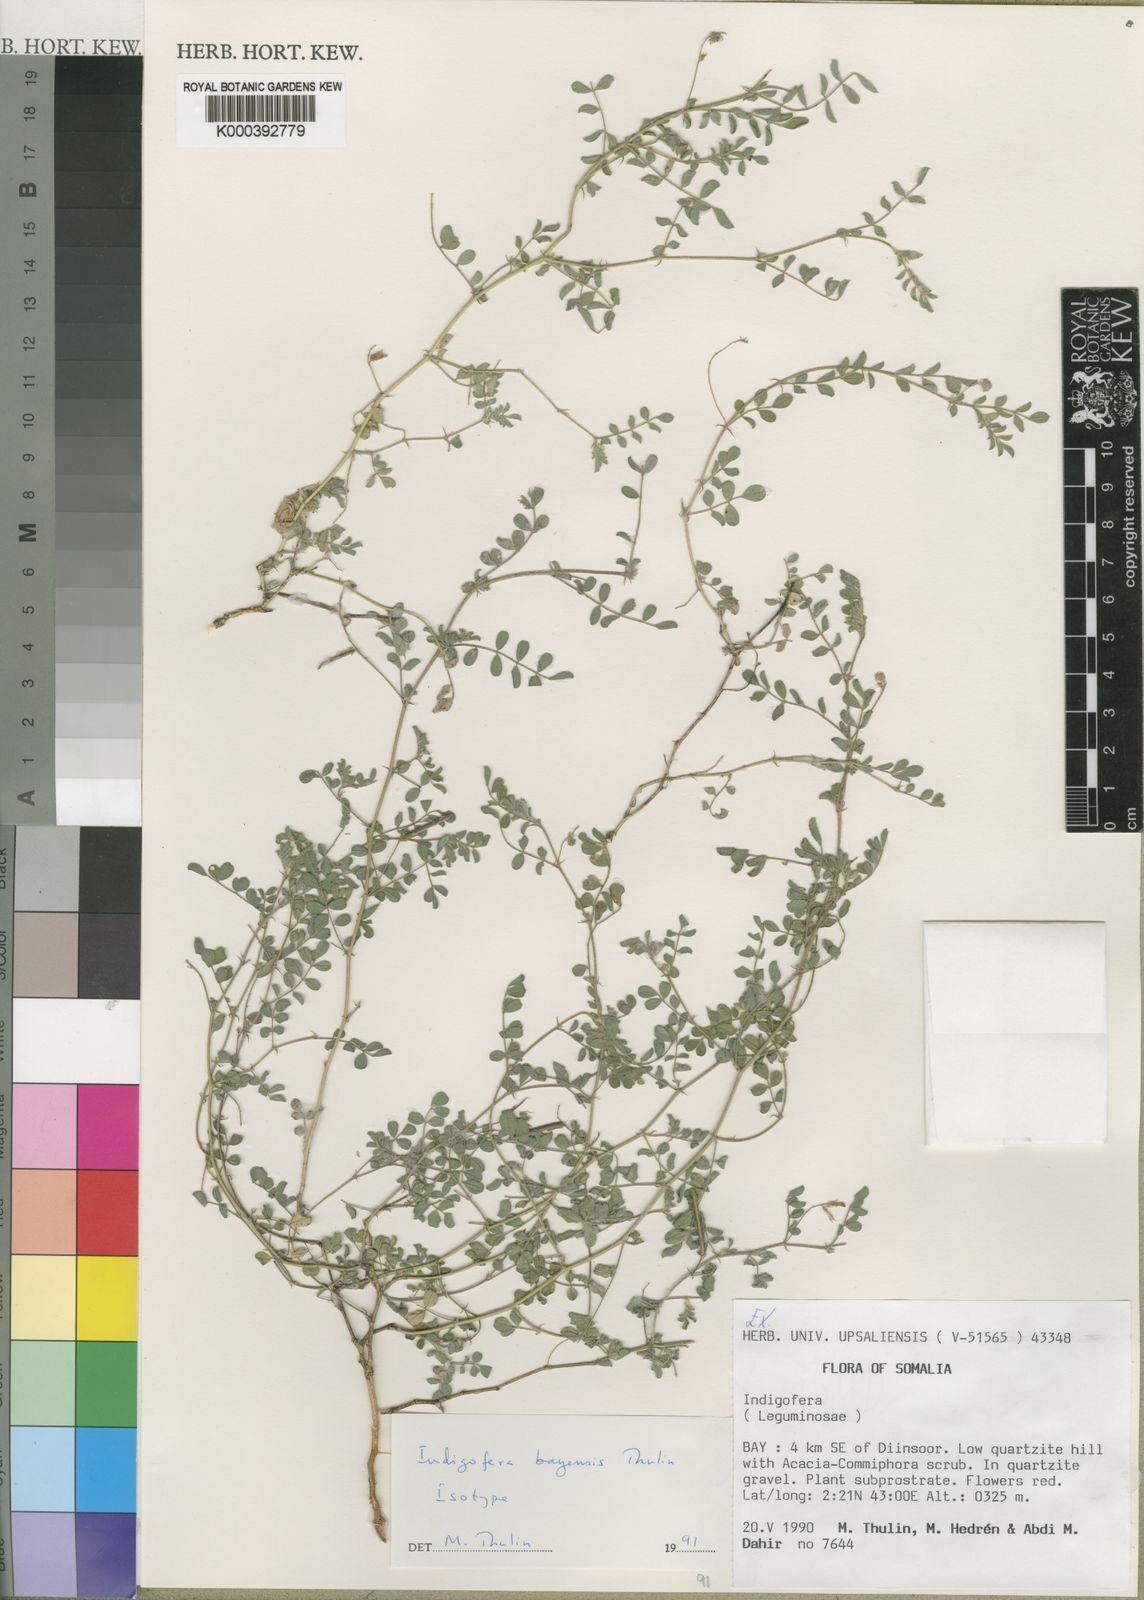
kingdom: Plantae
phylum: Tracheophyta
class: Magnoliopsida
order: Fabales
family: Fabaceae
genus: Indigofera
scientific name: Indigofera bayensis
